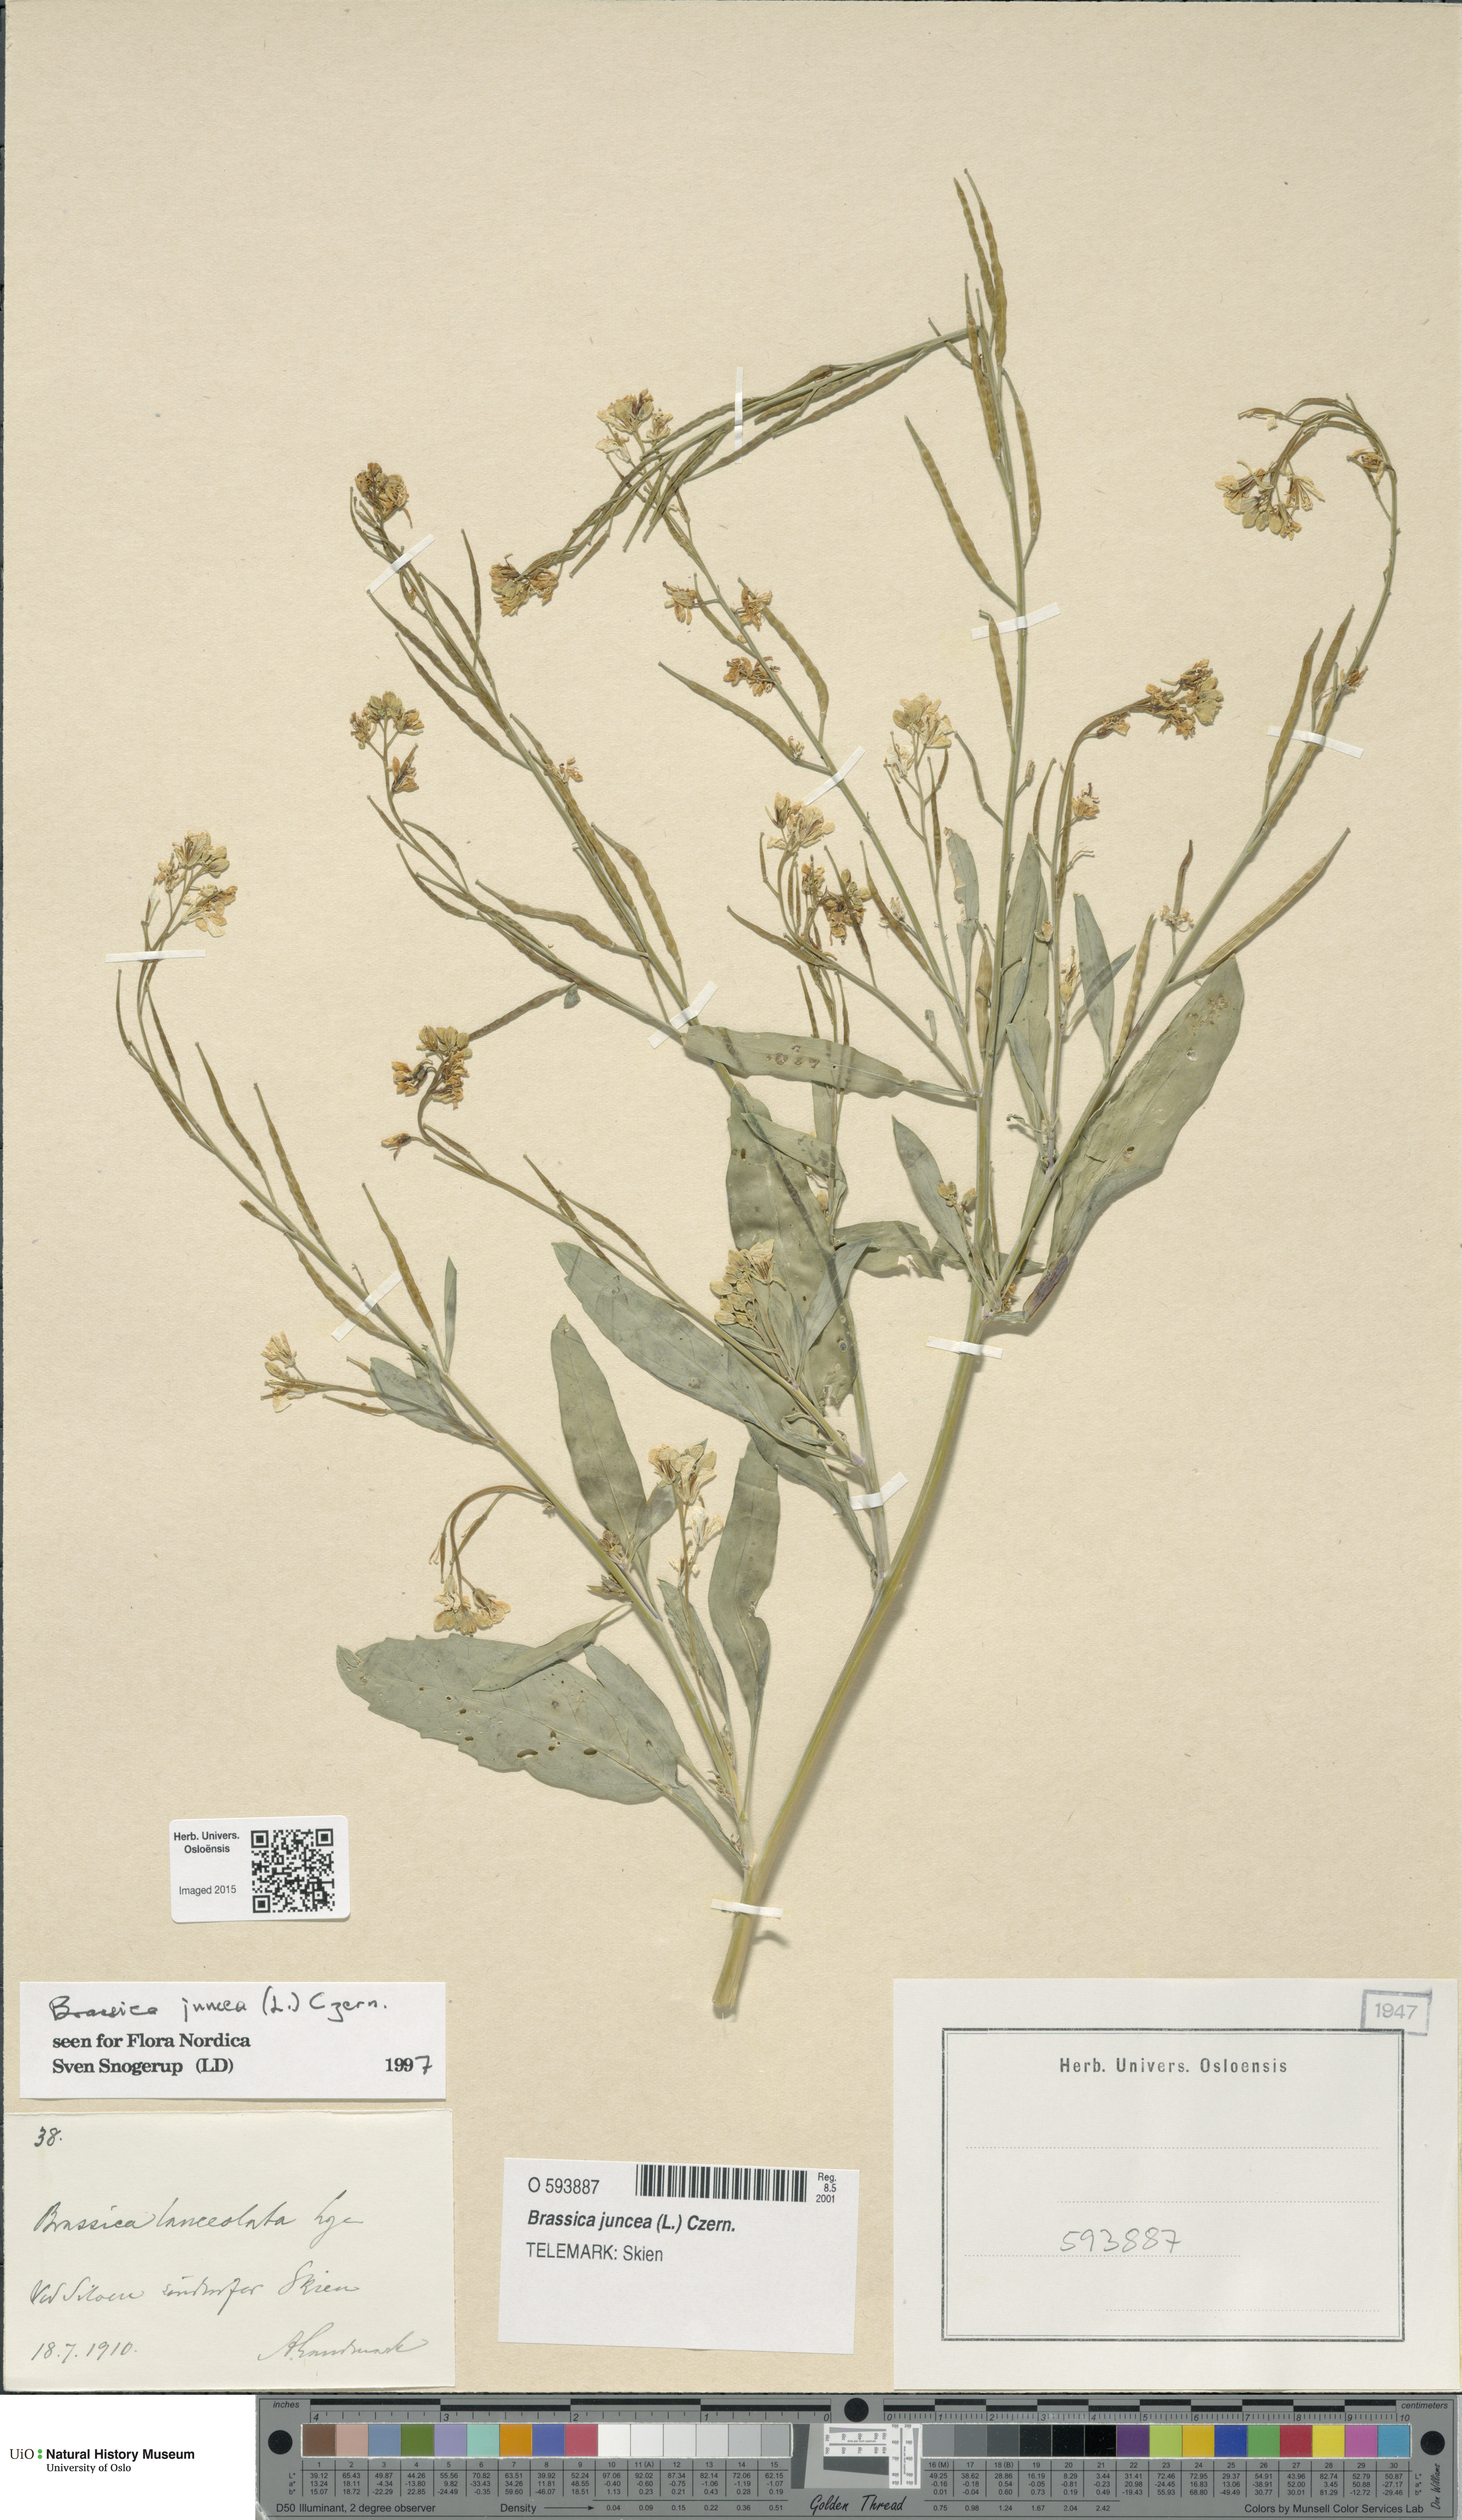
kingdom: Plantae
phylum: Tracheophyta
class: Magnoliopsida
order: Brassicales
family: Brassicaceae
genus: Brassica
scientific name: Brassica juncea
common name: Brown mustard
